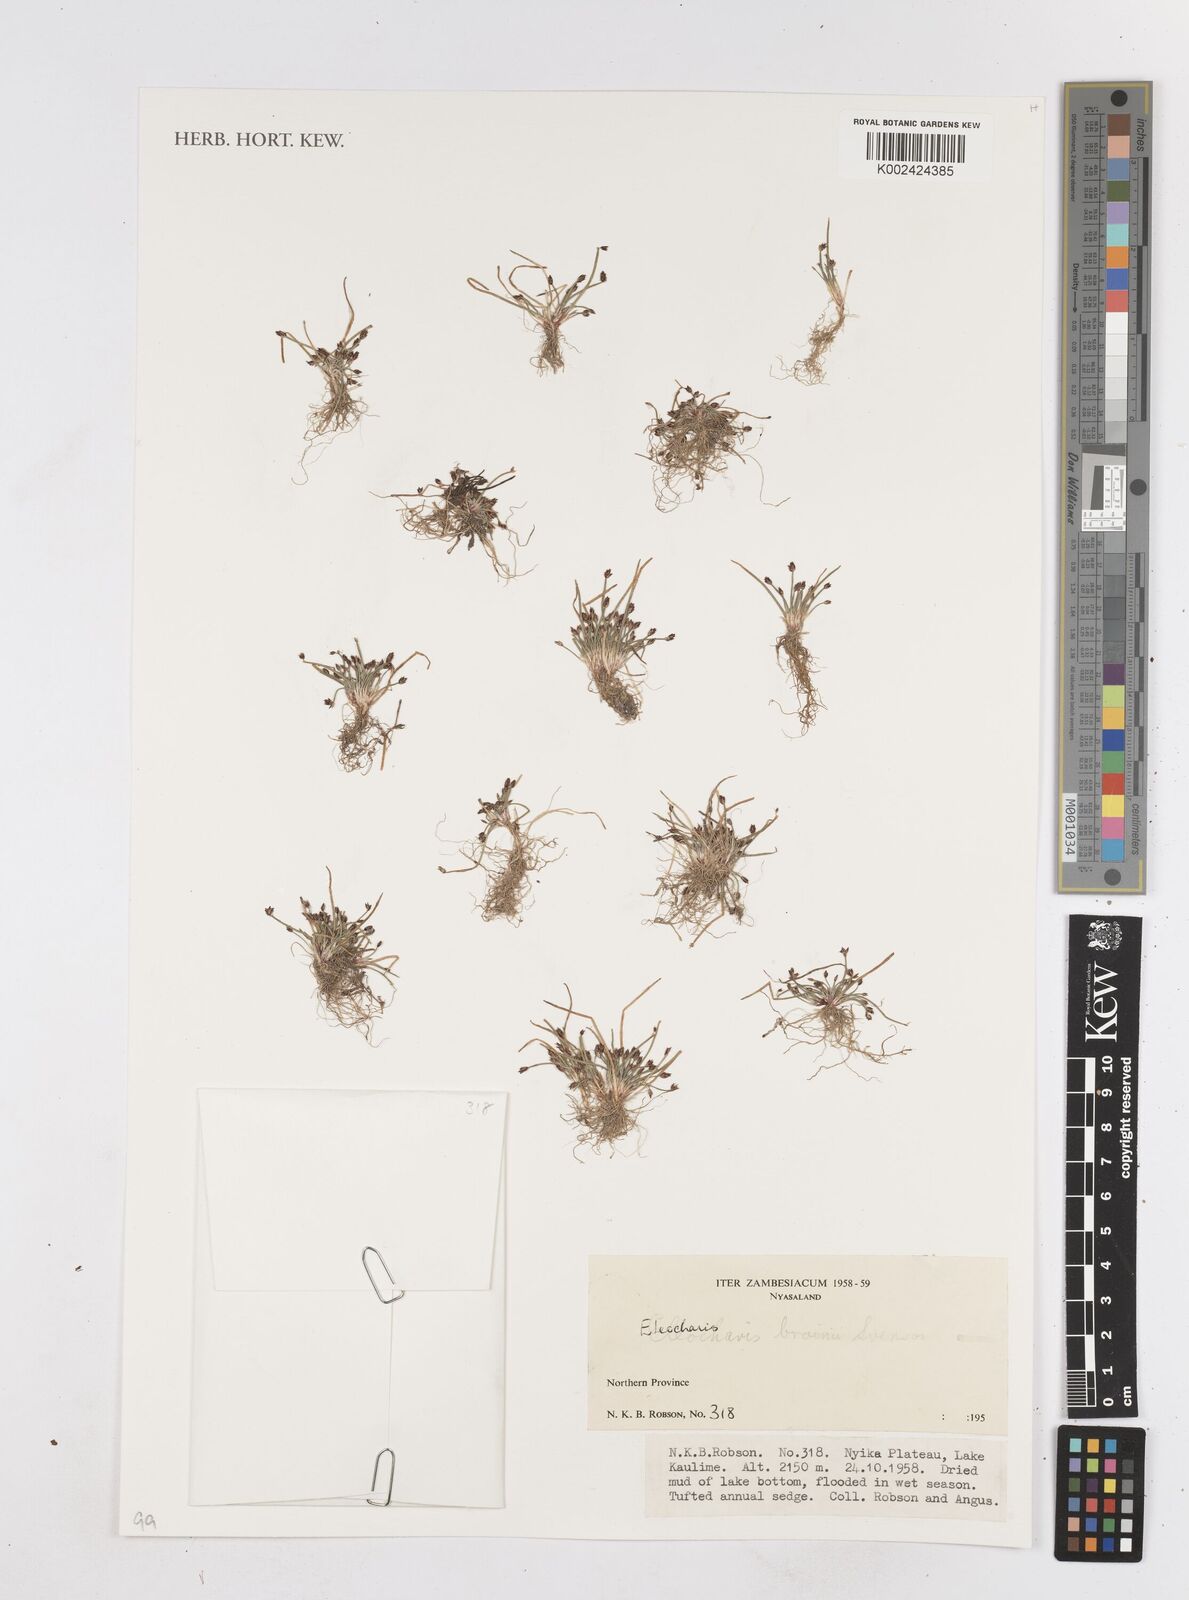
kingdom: Plantae
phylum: Tracheophyta
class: Liliopsida
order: Poales
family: Cyperaceae
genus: Eleocharis
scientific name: Eleocharis brainii
